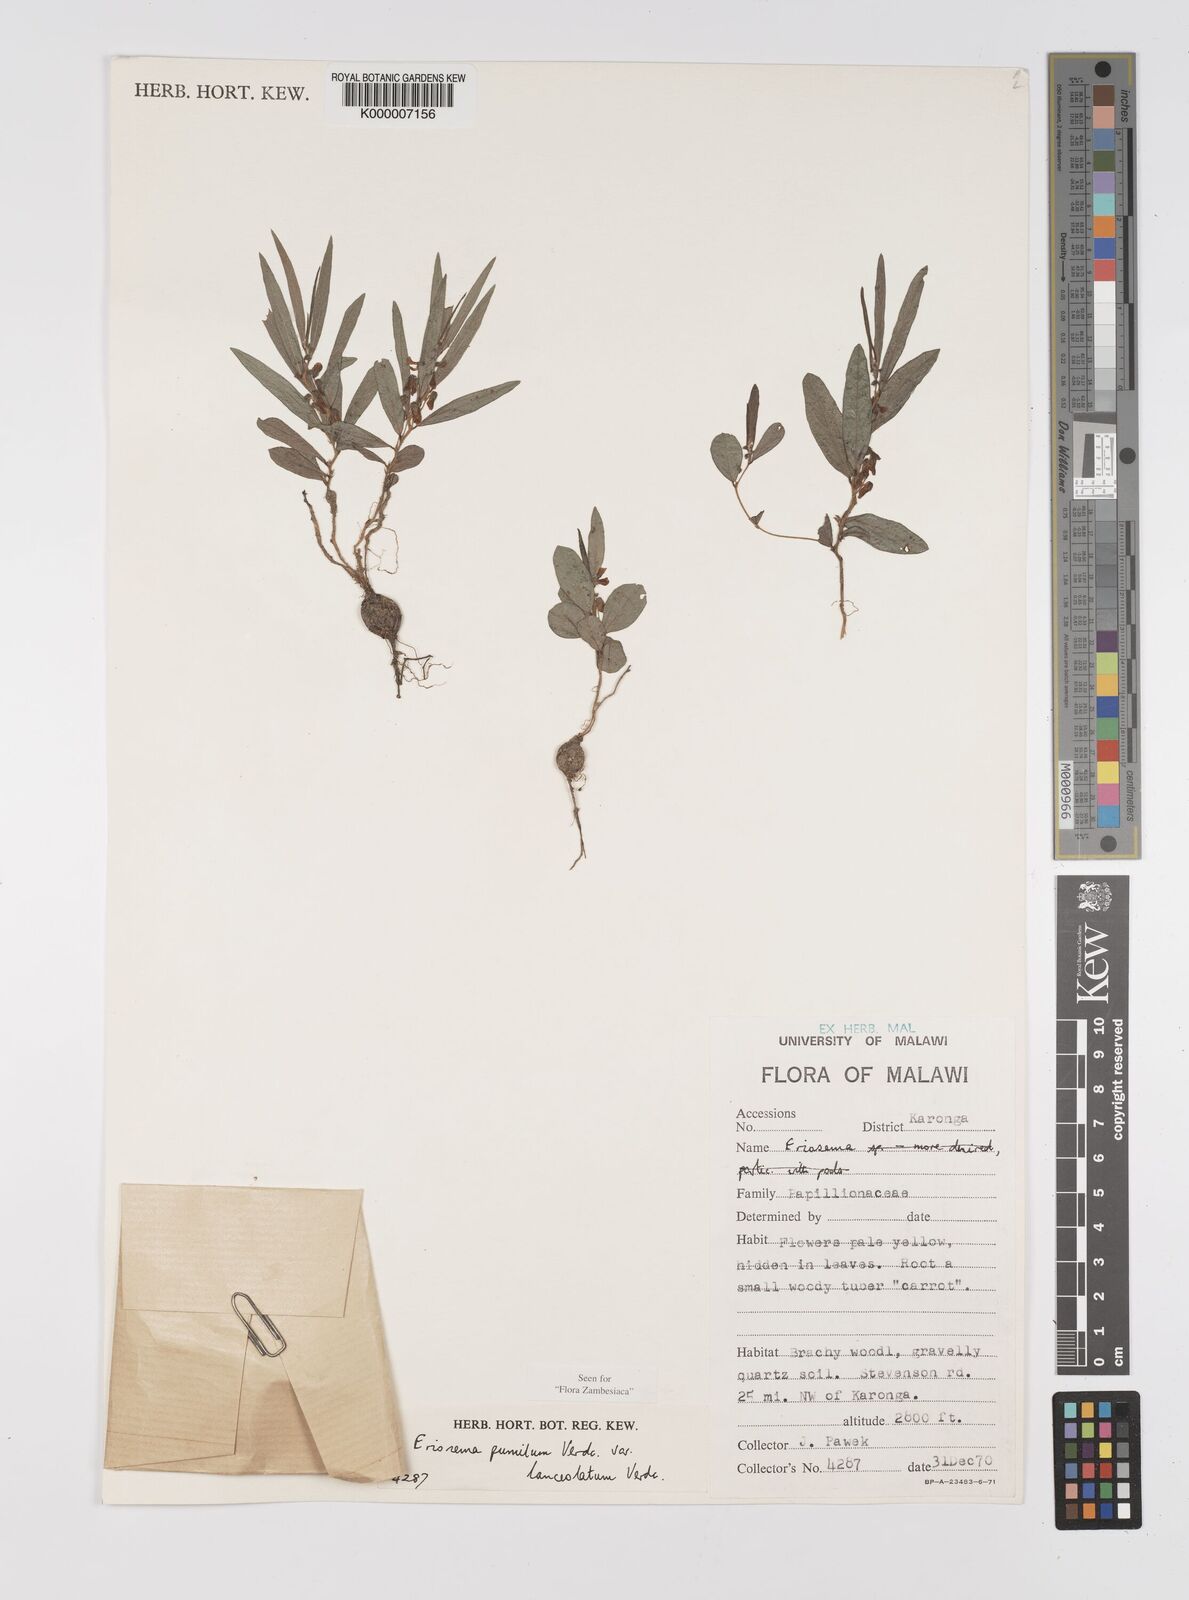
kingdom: Plantae
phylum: Tracheophyta
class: Magnoliopsida
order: Fabales
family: Fabaceae
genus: Eriosema
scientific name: Eriosema pumilum
